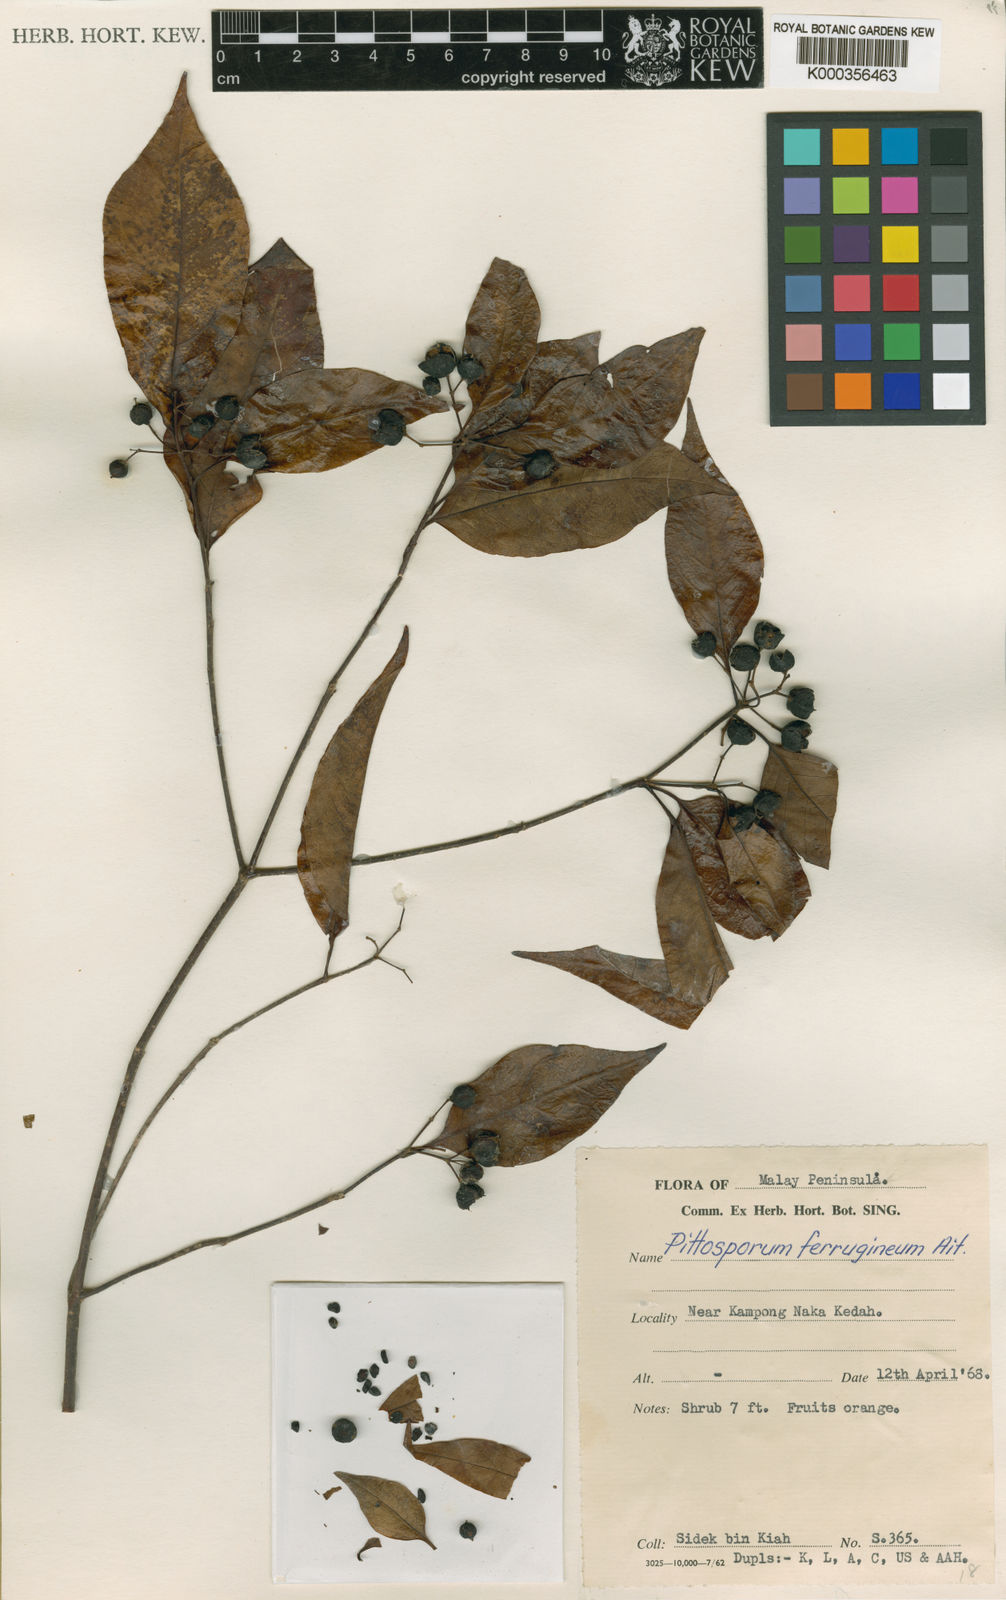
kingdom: Plantae
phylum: Tracheophyta
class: Magnoliopsida
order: Apiales
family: Pittosporaceae
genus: Pittosporum
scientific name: Pittosporum ferrugineum
